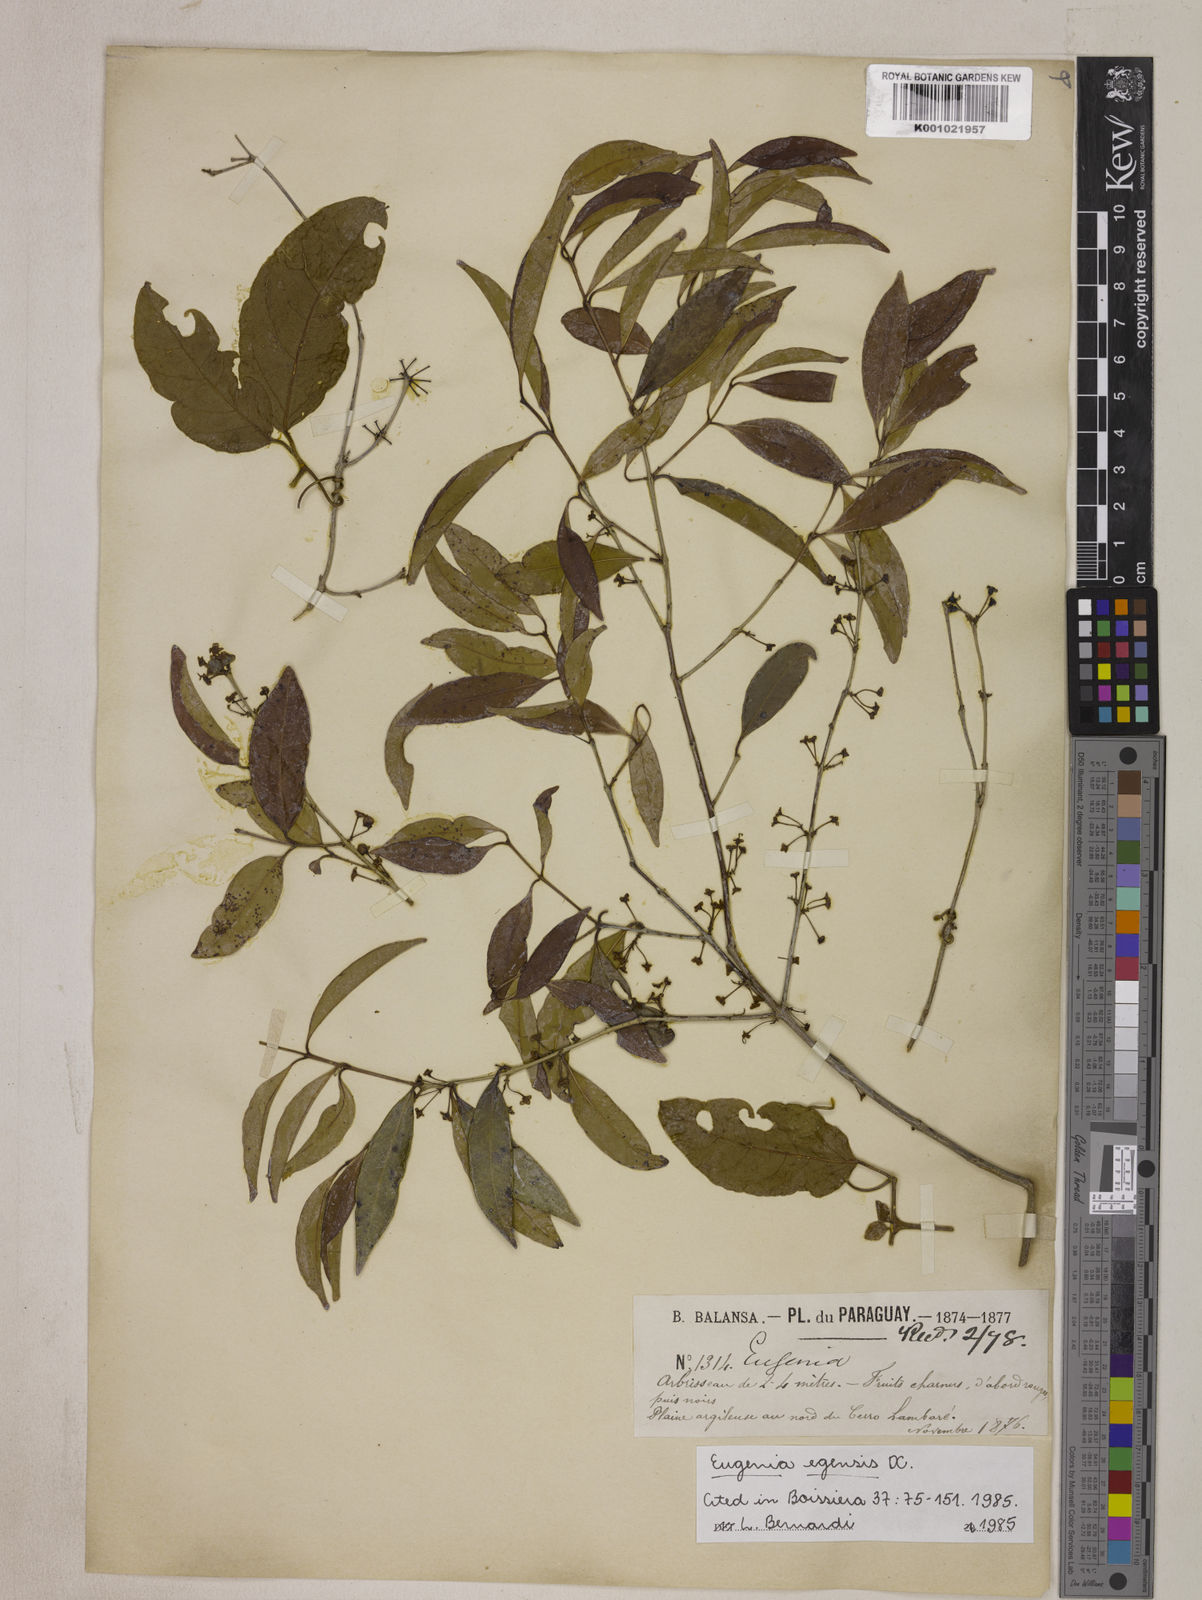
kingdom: Plantae
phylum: Tracheophyta
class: Magnoliopsida
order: Myrtales
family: Myrtaceae
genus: Eugenia
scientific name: Eugenia egensis
